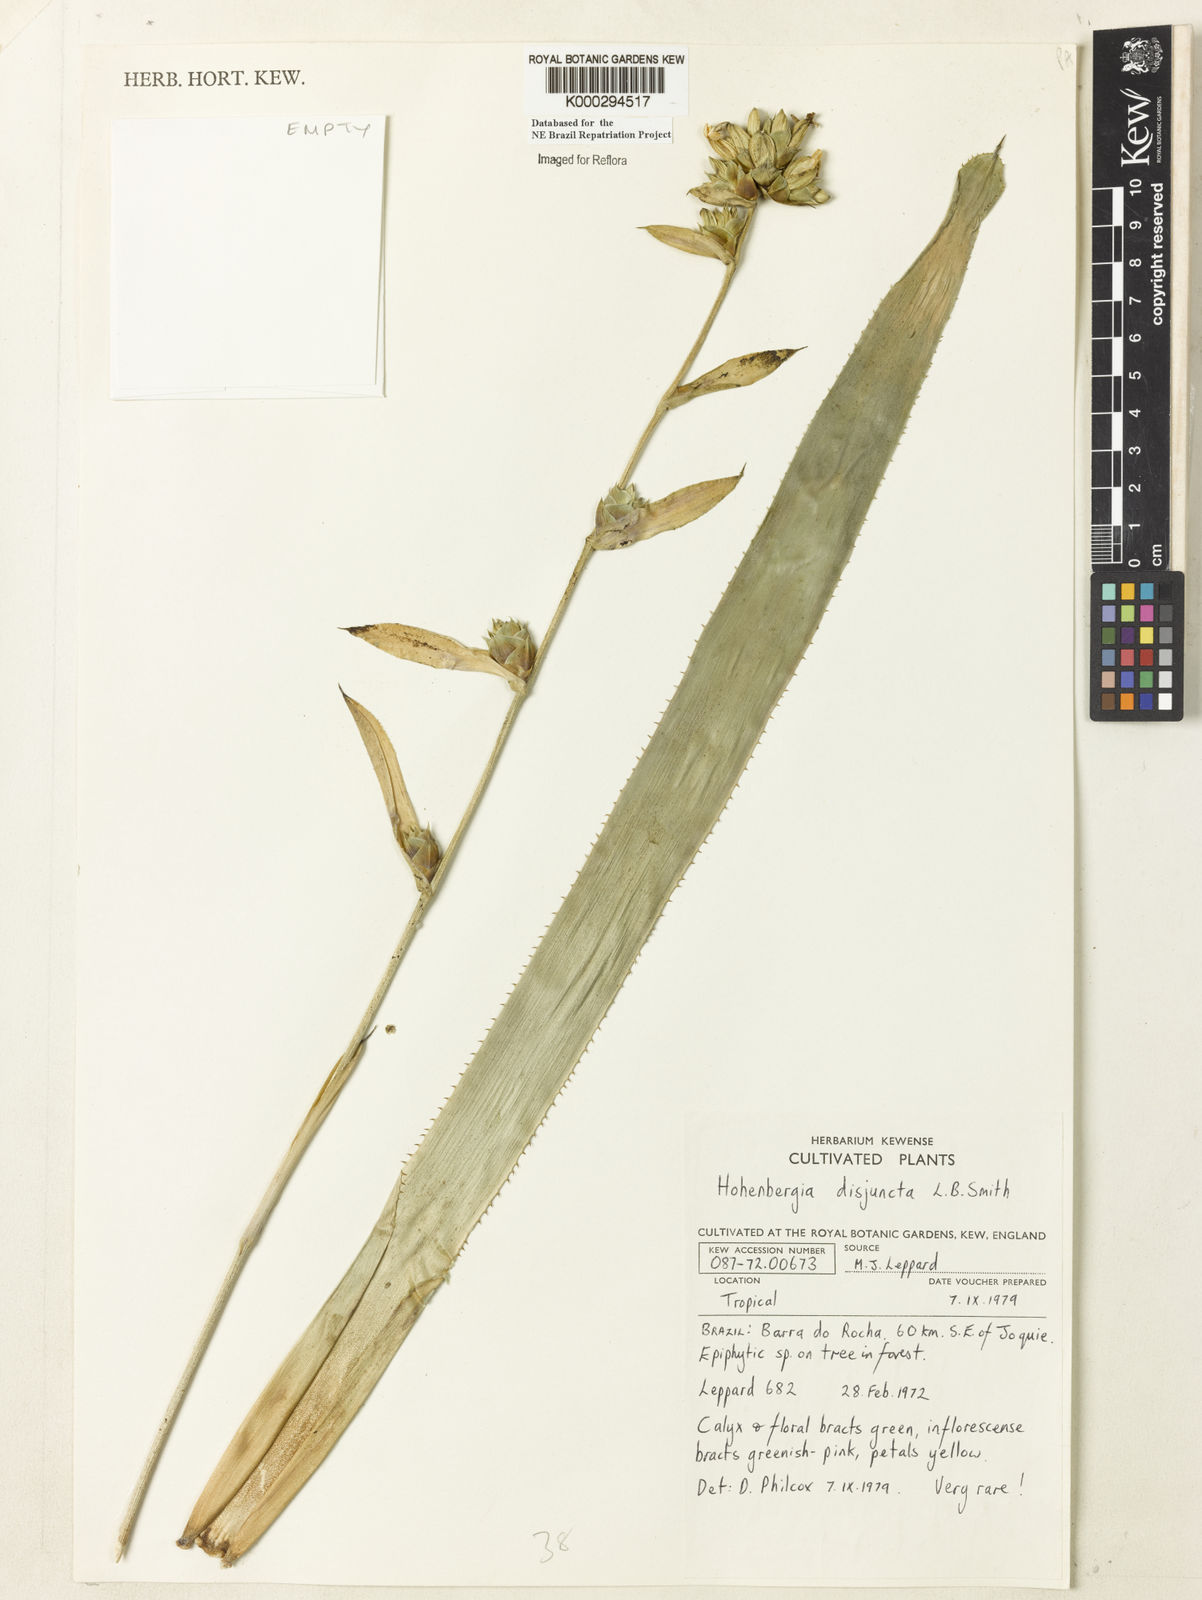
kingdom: Plantae
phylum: Tracheophyta
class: Liliopsida
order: Poales
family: Bromeliaceae
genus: Aechmea
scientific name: Aechmea disjuncta
